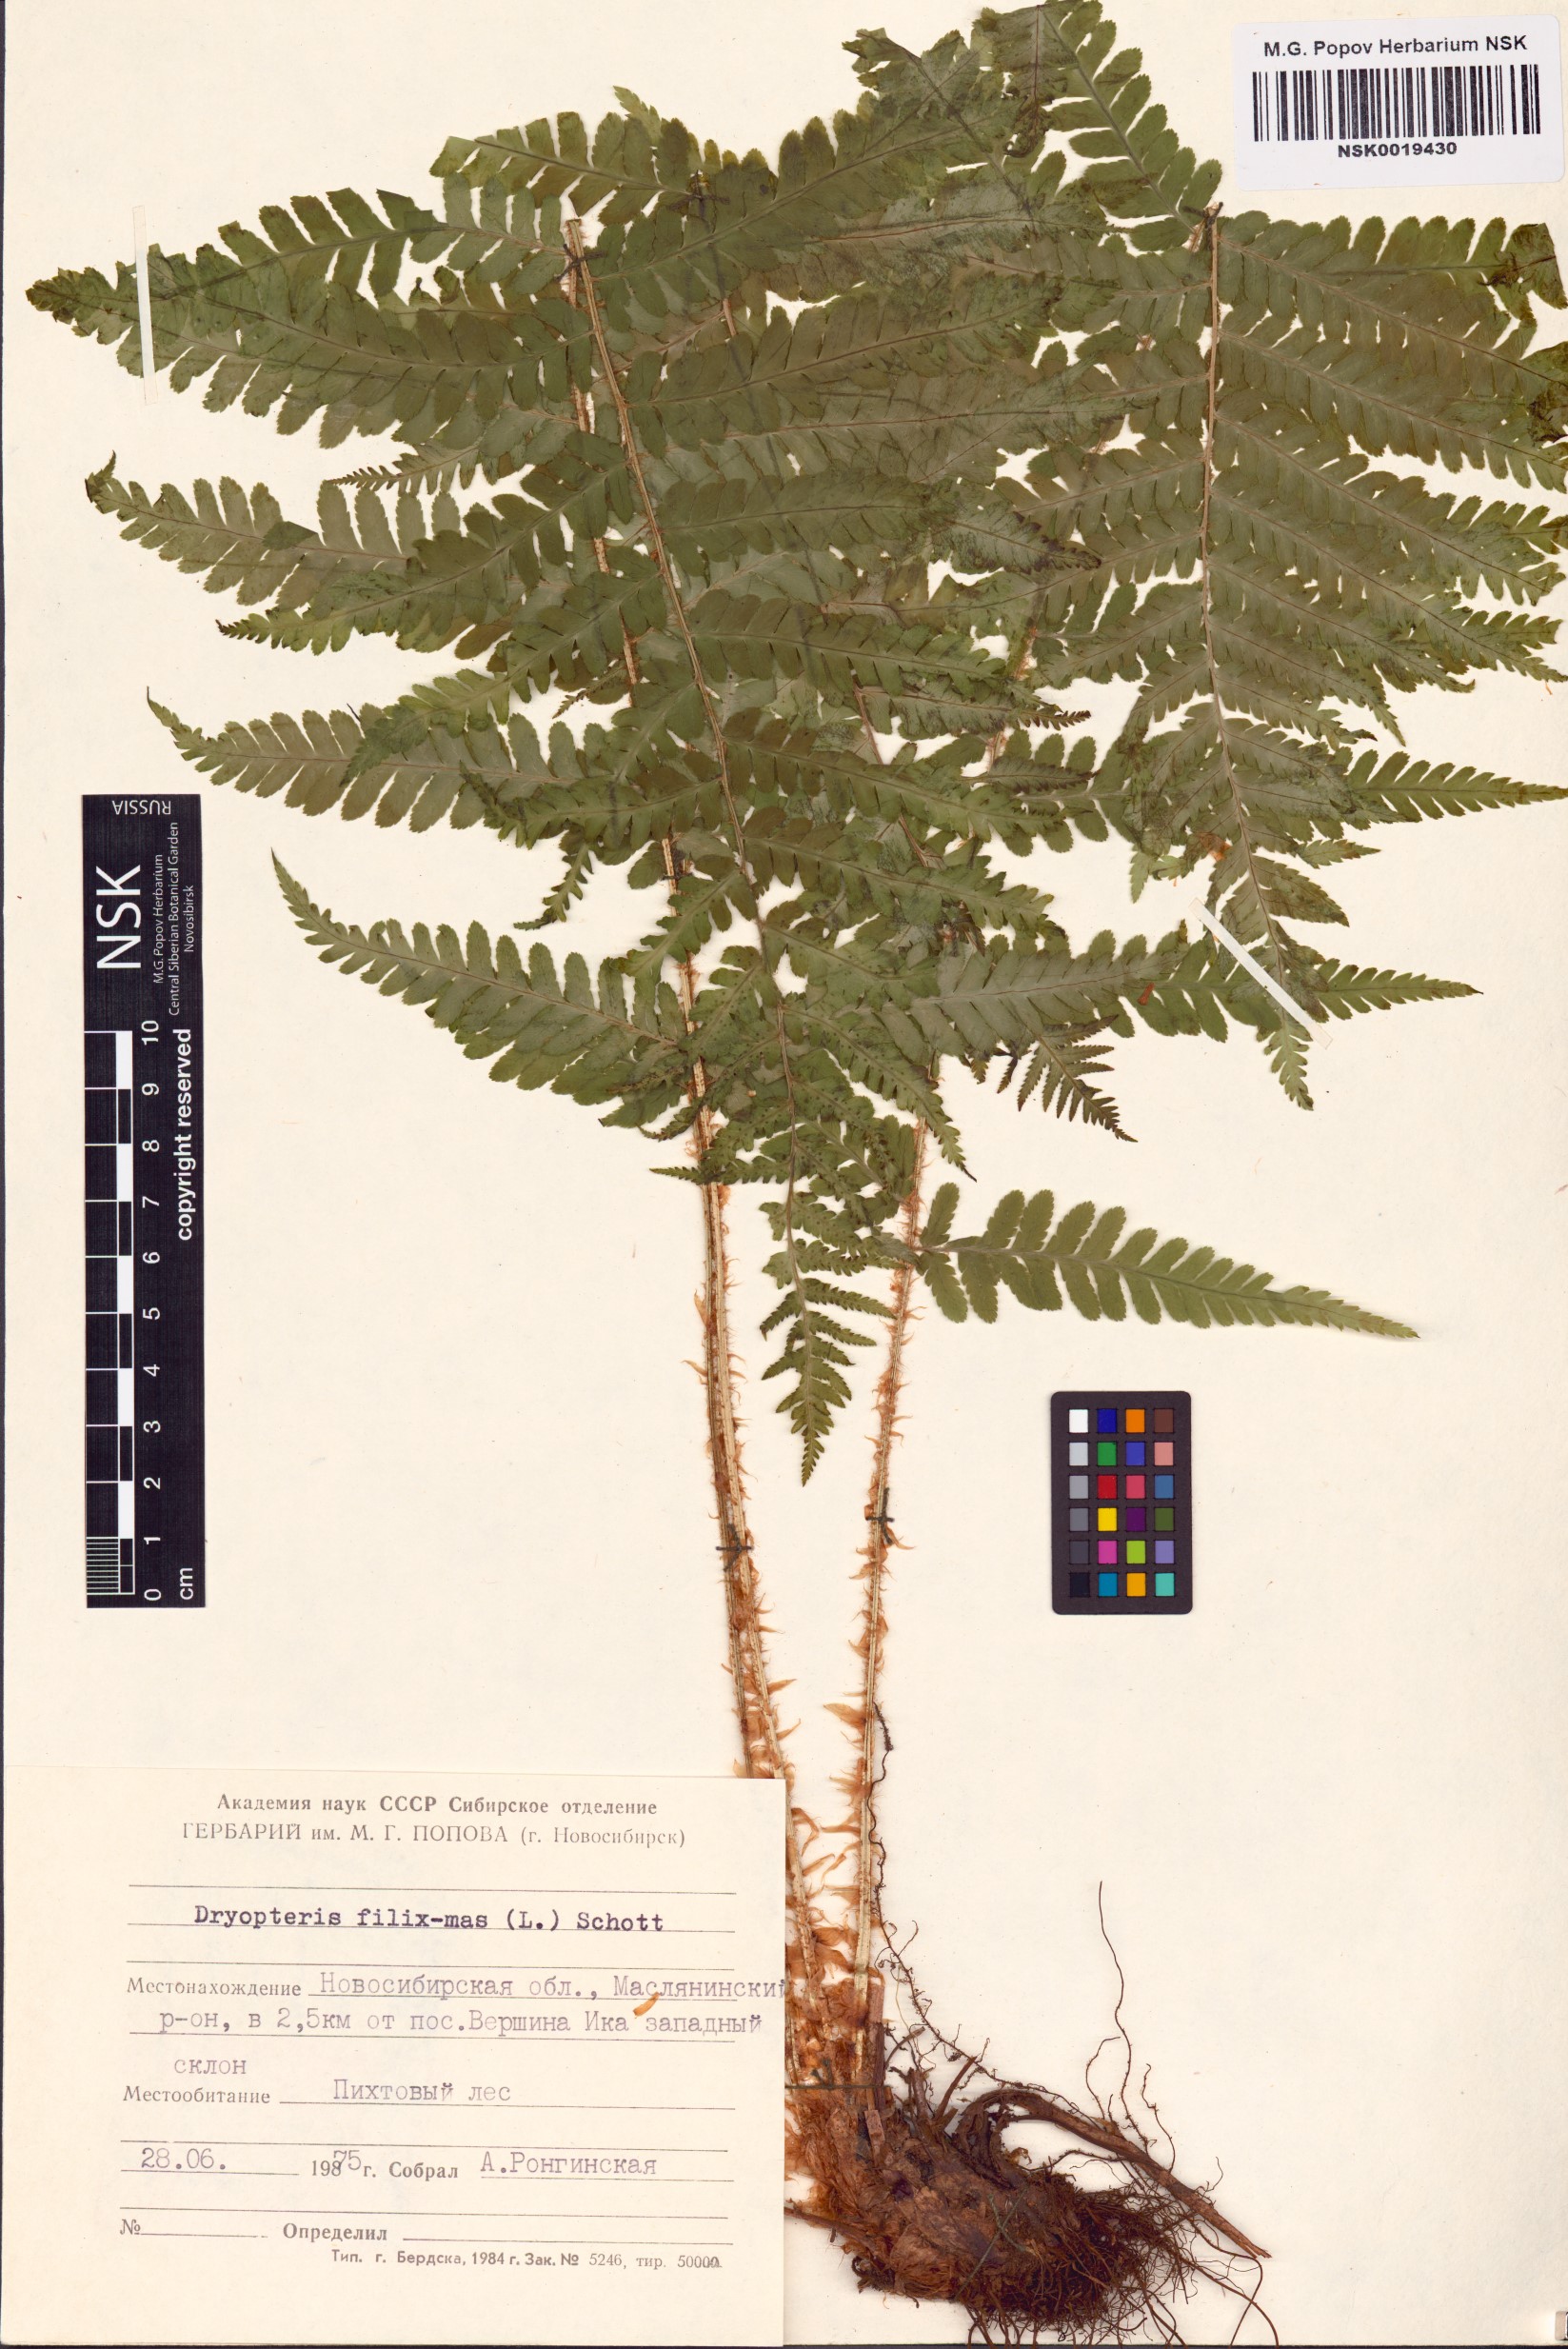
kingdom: Plantae
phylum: Tracheophyta
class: Polypodiopsida
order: Polypodiales
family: Dryopteridaceae
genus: Dryopteris
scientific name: Dryopteris filix-mas
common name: Male fern
